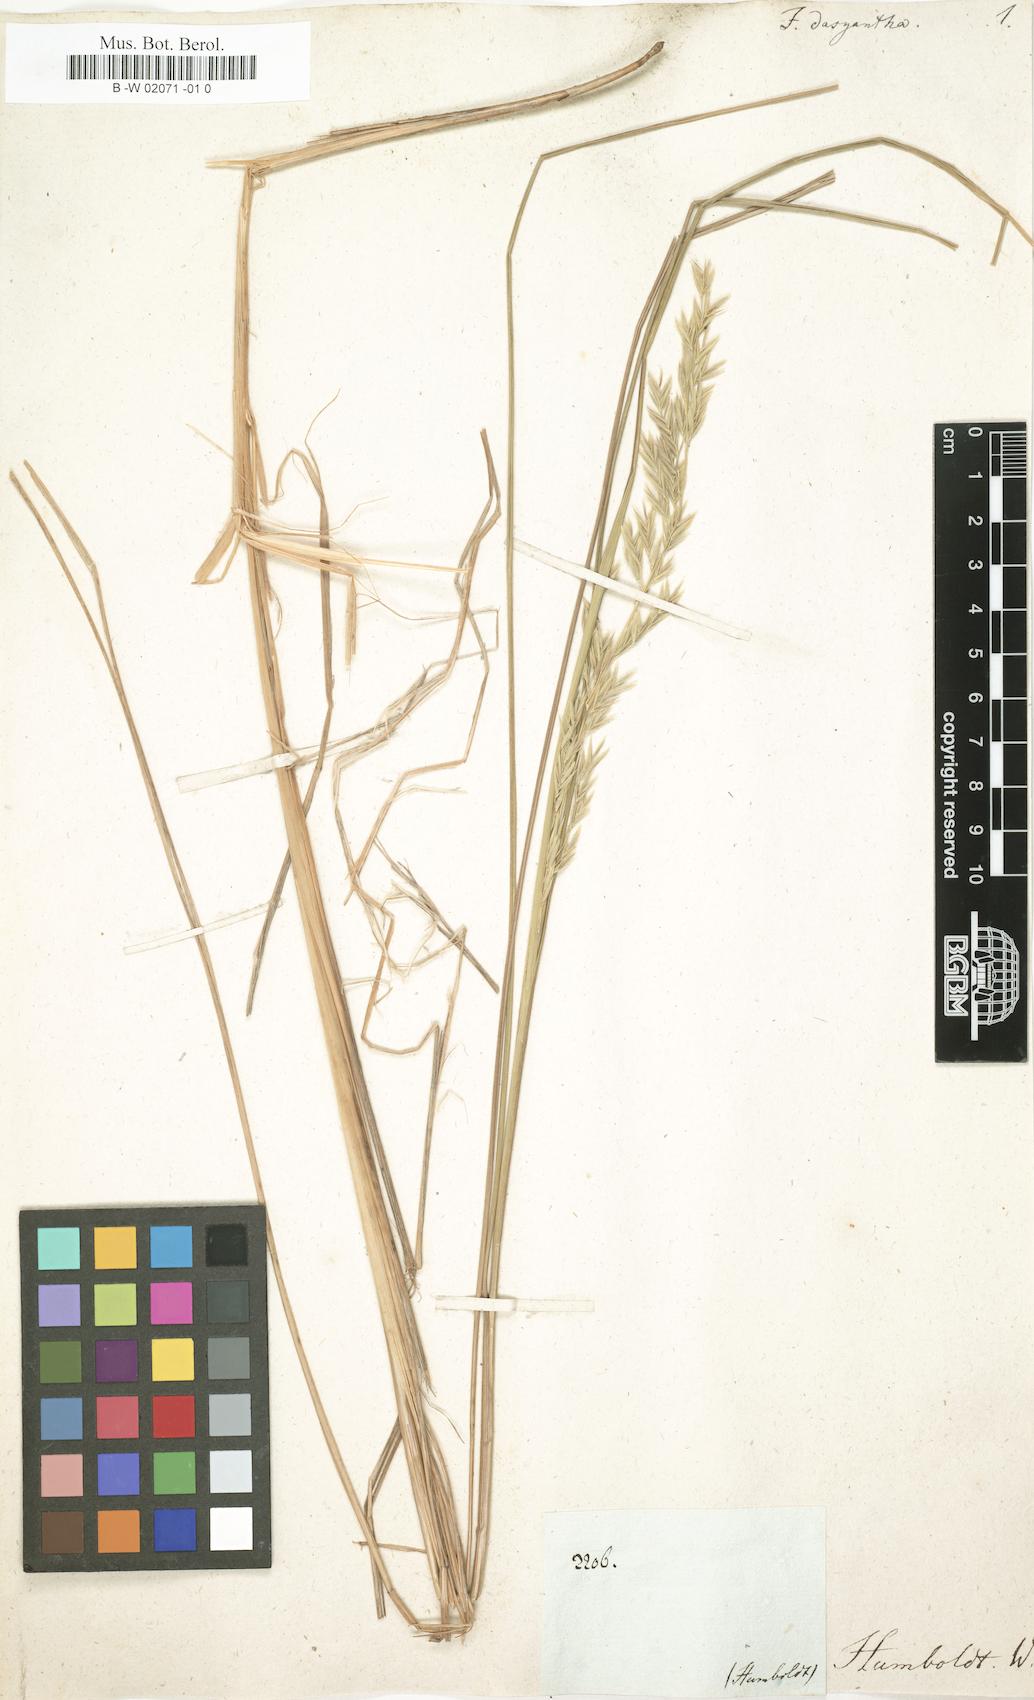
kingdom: Plantae
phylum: Tracheophyta
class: Liliopsida
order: Poales
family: Poaceae
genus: Festuca
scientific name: Festuca dasyantha
